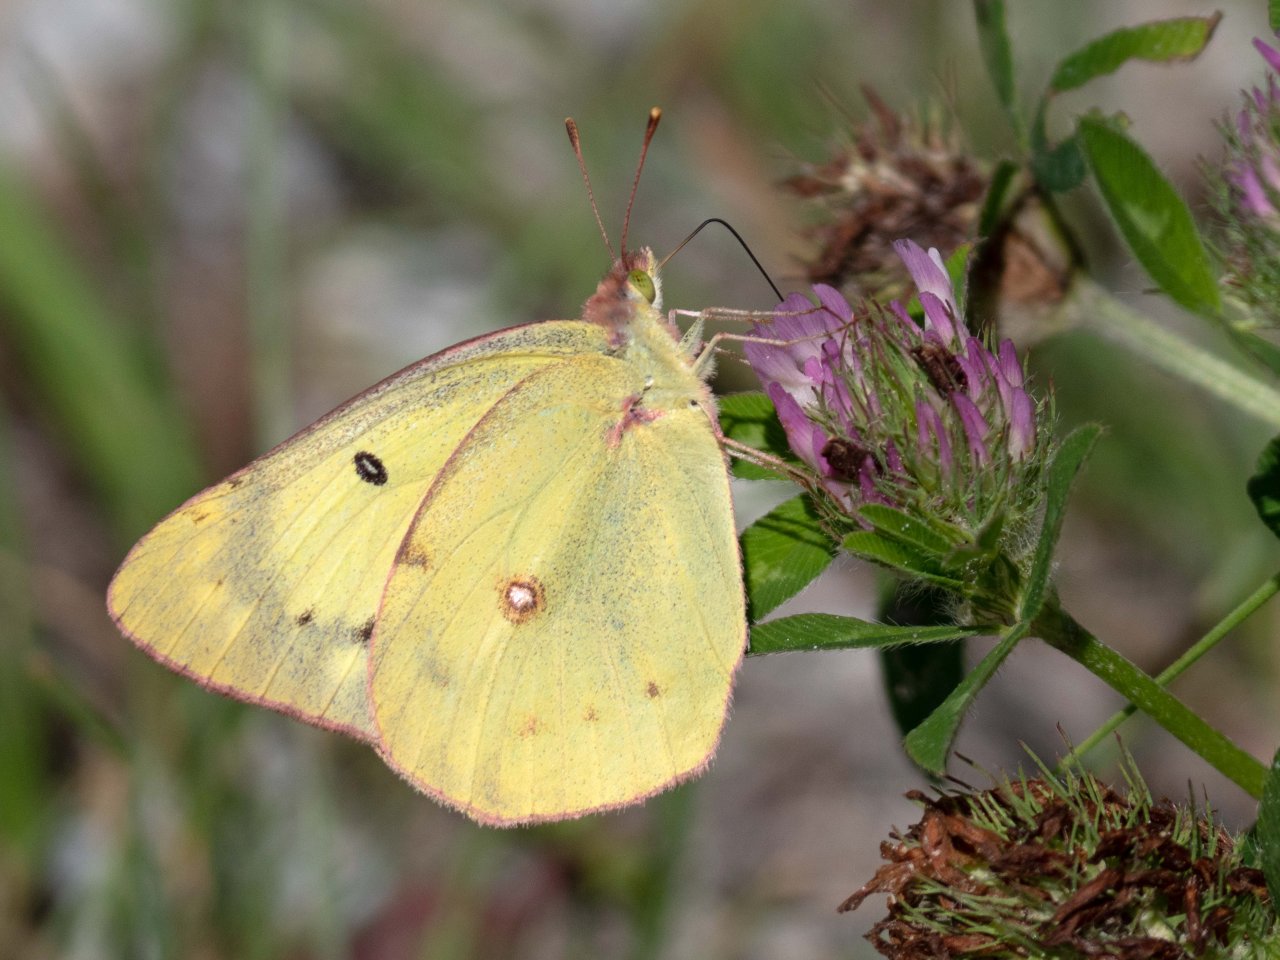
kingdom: Animalia
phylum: Arthropoda
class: Insecta
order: Lepidoptera
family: Pieridae
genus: Colias
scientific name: Colias philodice
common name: Clouded Sulphur
